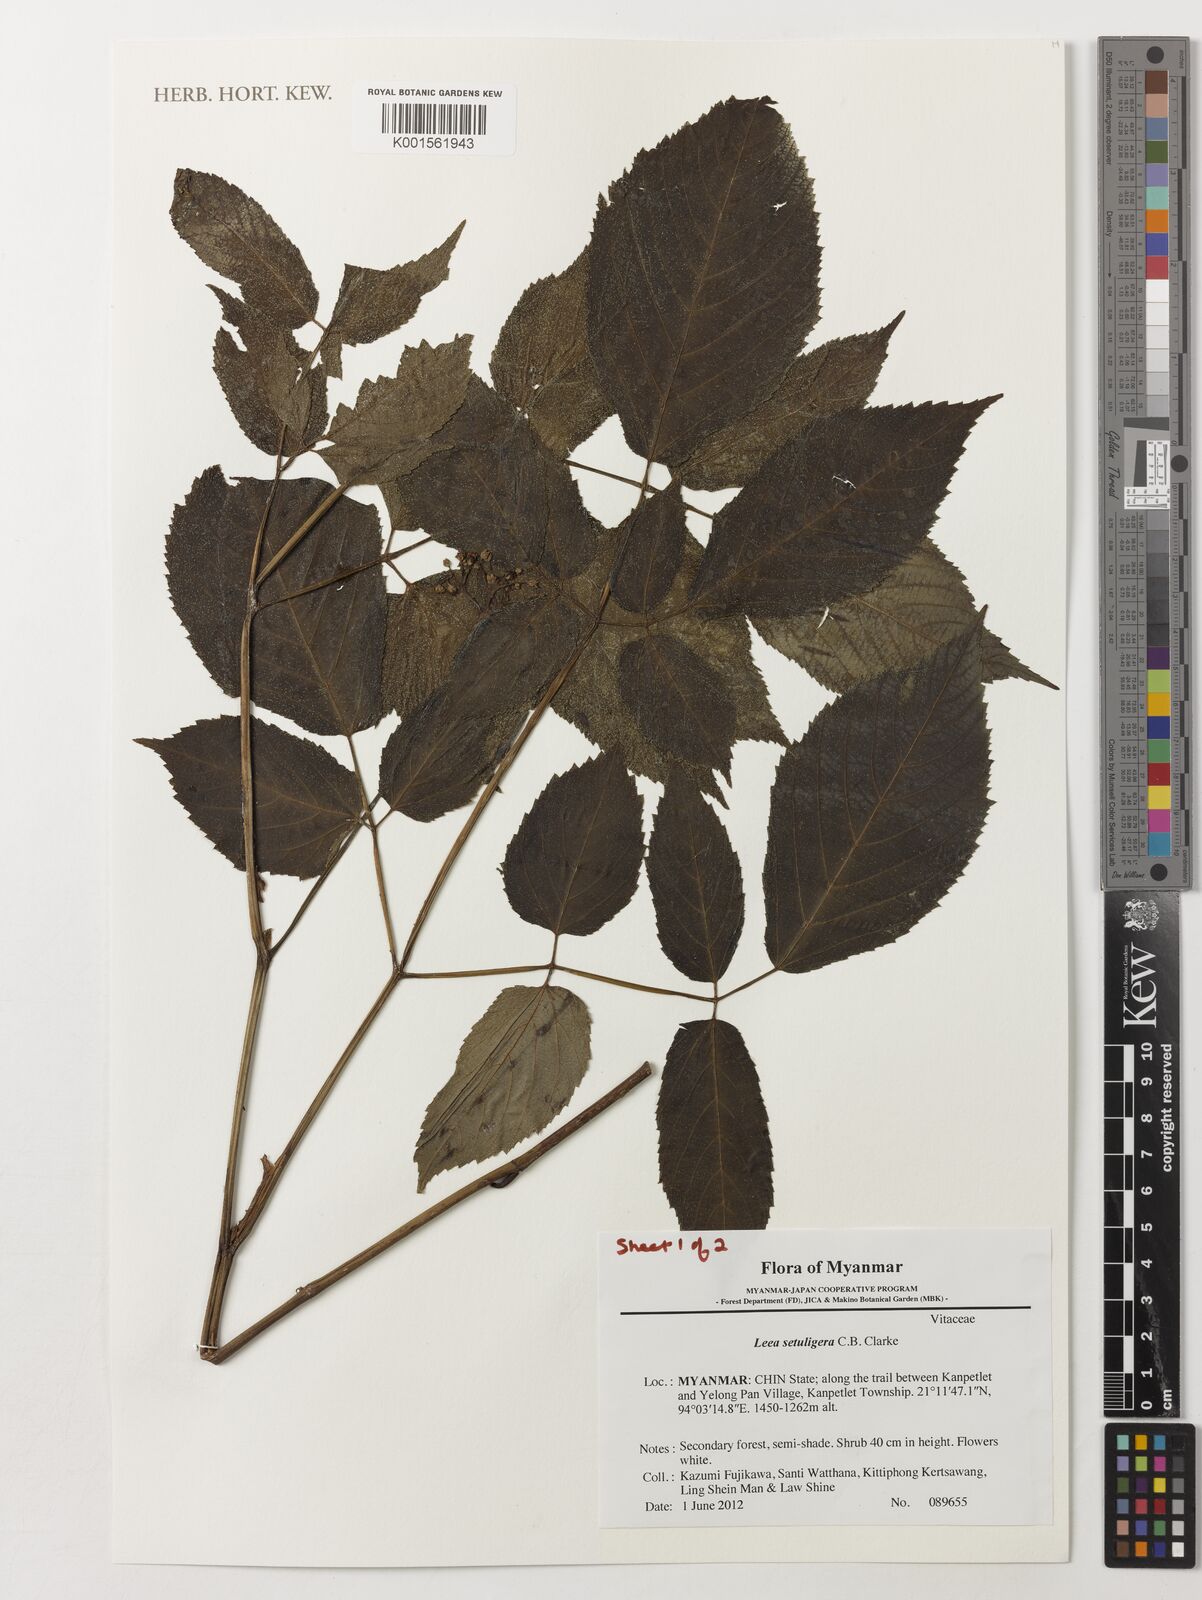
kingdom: Plantae
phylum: Tracheophyta
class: Magnoliopsida
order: Vitales
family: Vitaceae
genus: Leea
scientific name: Leea setuligera
